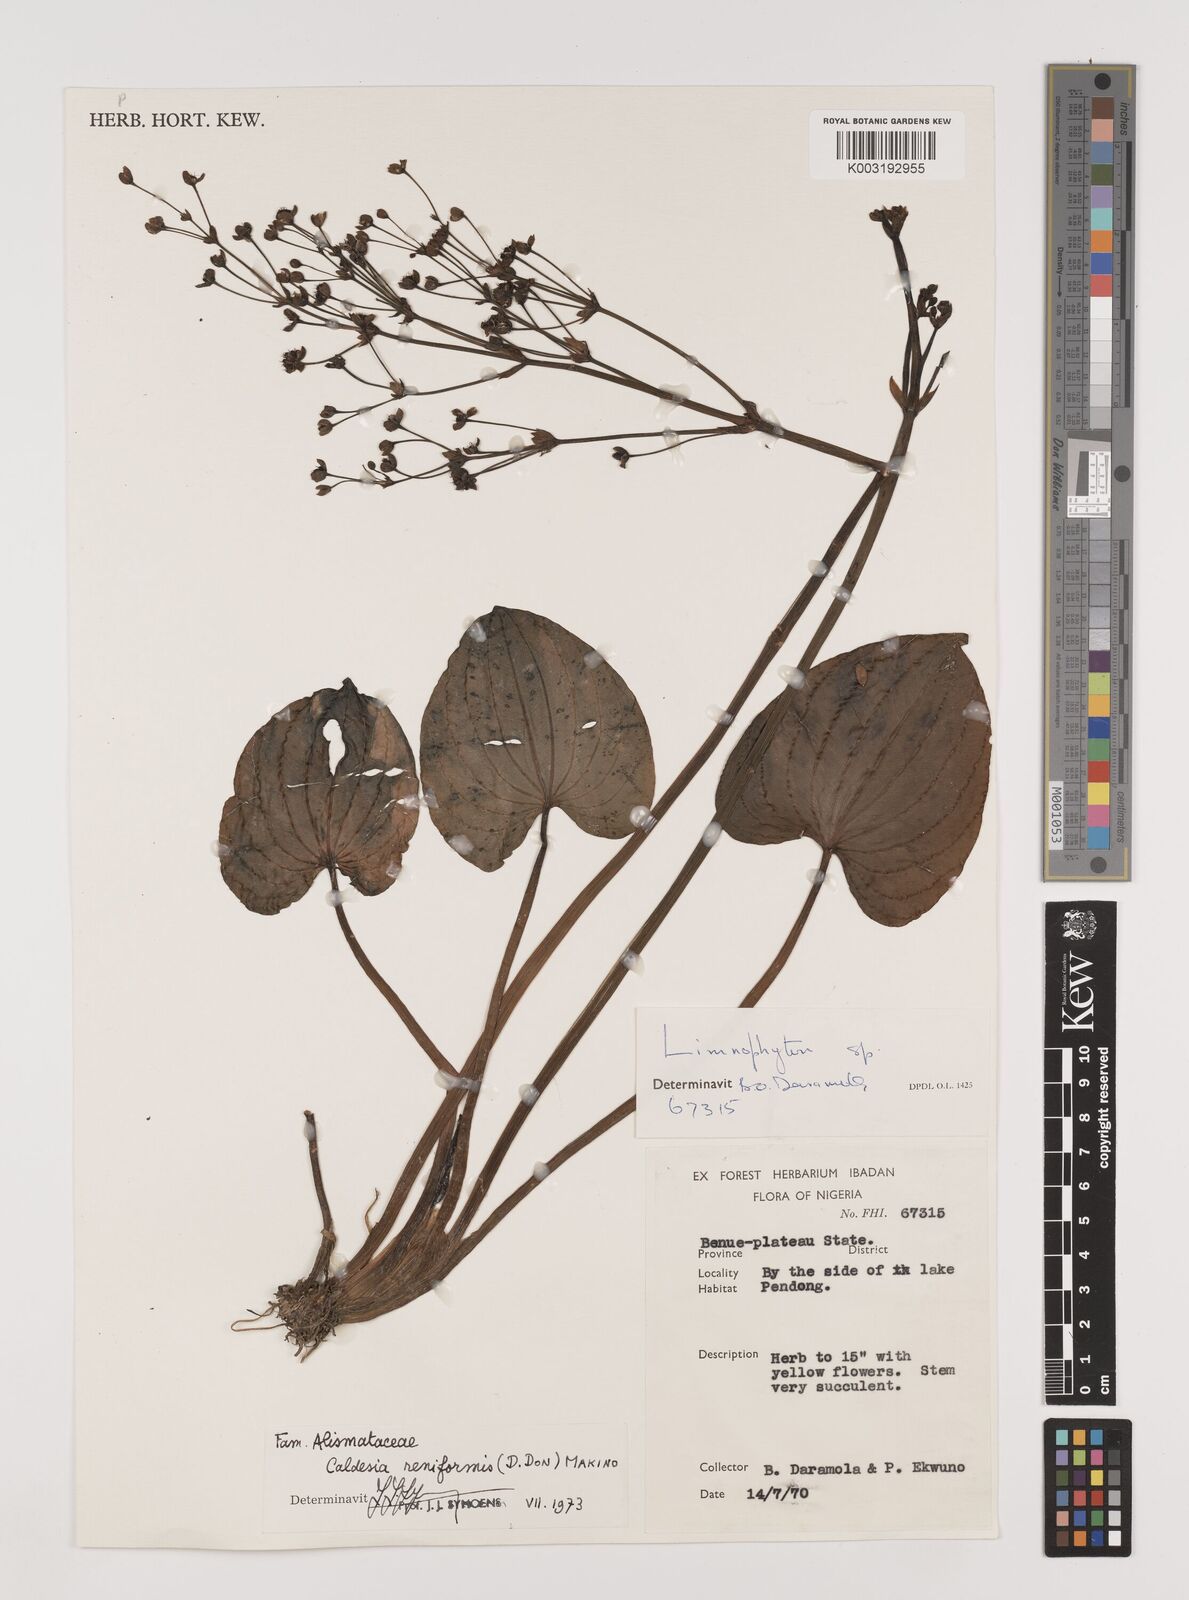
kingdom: Plantae
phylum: Tracheophyta
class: Liliopsida
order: Alismatales
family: Alismataceae
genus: Caldesia
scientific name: Caldesia parnassifolia
